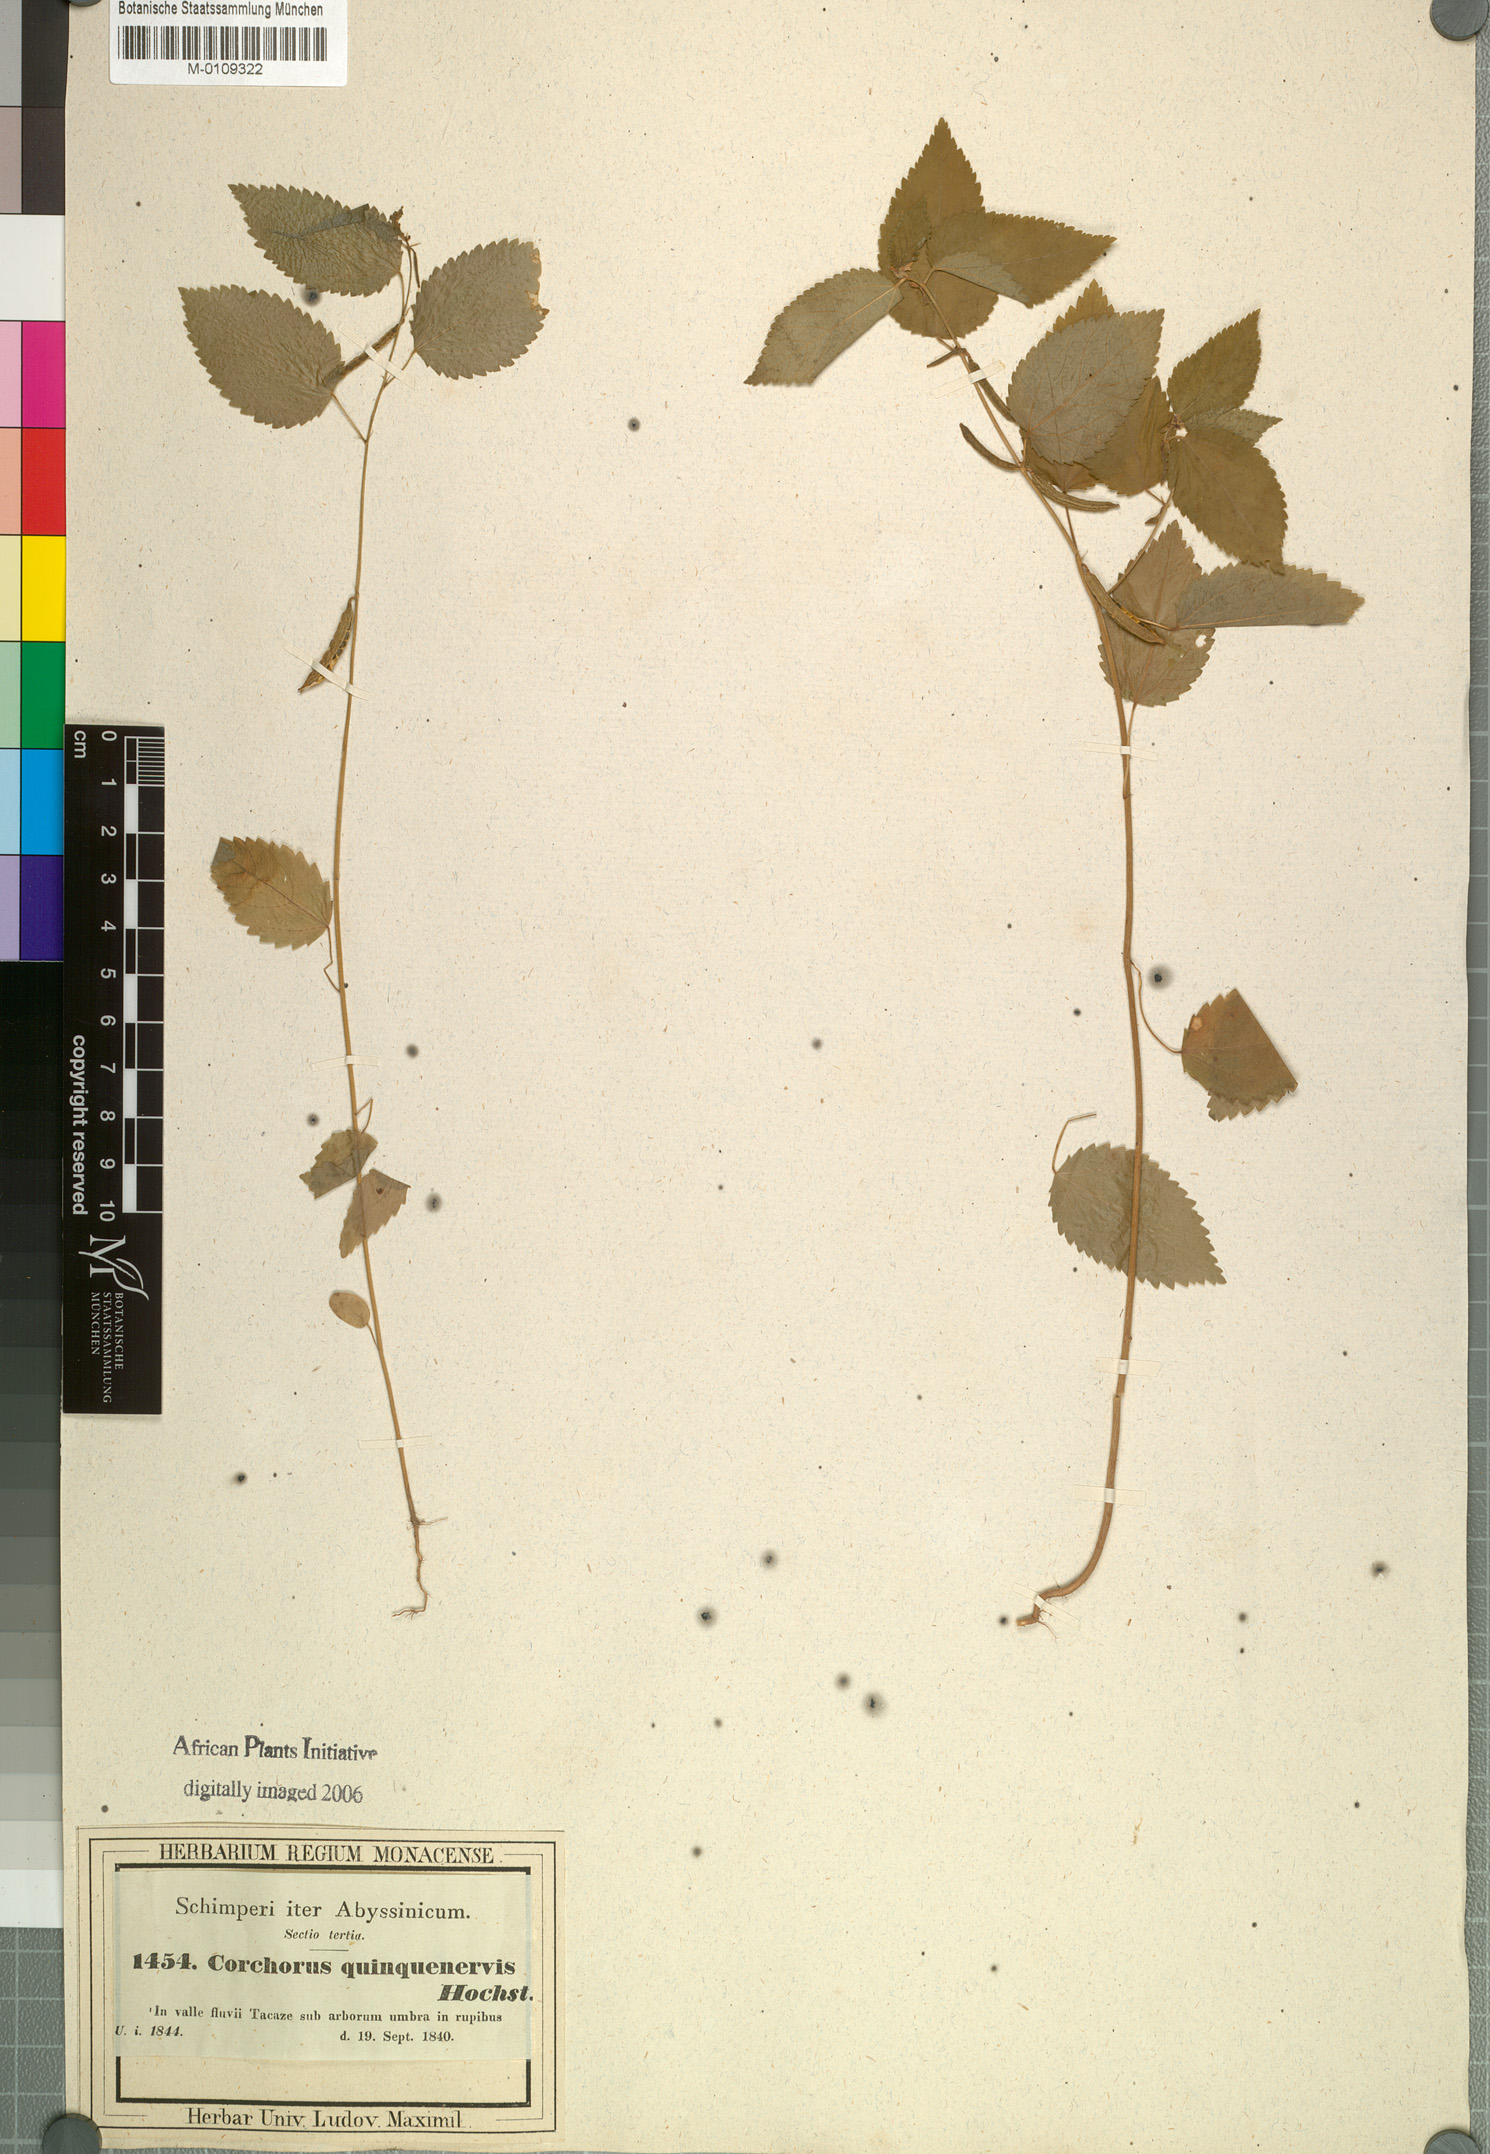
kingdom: Plantae
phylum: Tracheophyta
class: Magnoliopsida
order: Malvales
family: Malvaceae
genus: Corchorus
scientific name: Corchorus urticifolius
